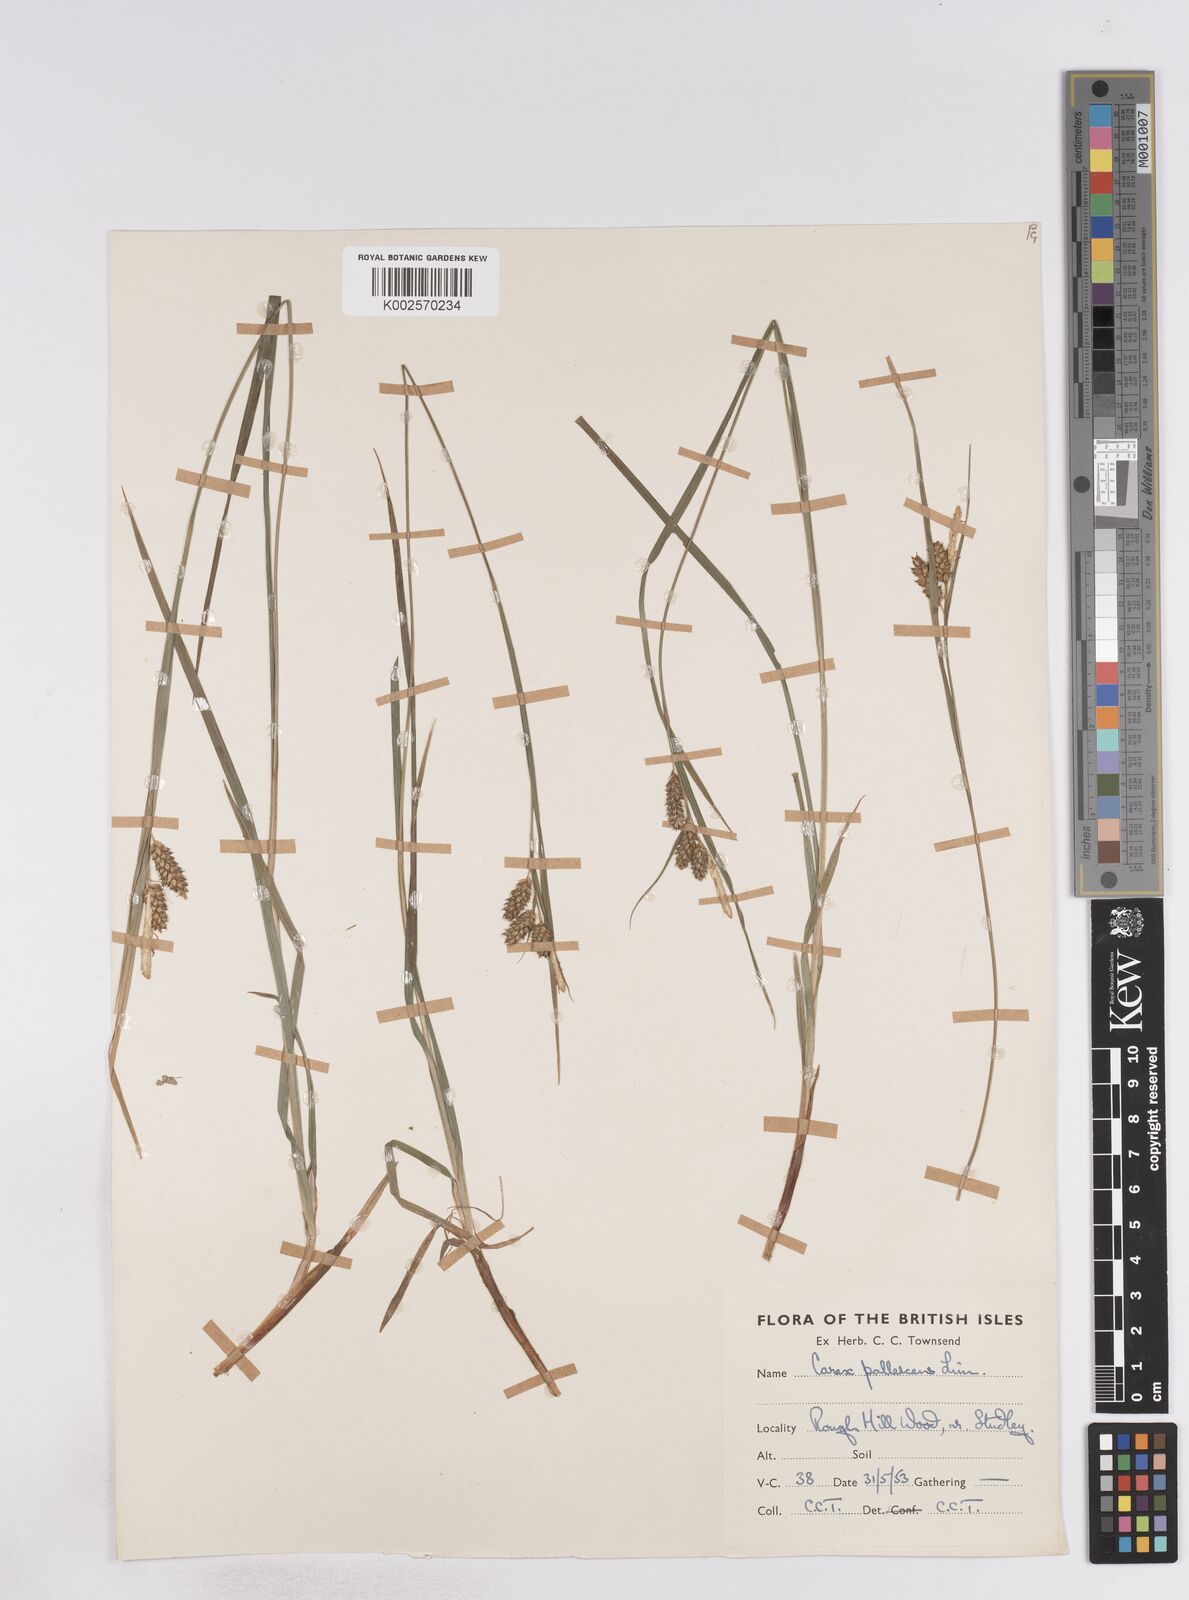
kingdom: Plantae
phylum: Tracheophyta
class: Liliopsida
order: Poales
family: Cyperaceae
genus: Carex
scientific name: Carex pallescens
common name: Pale sedge
